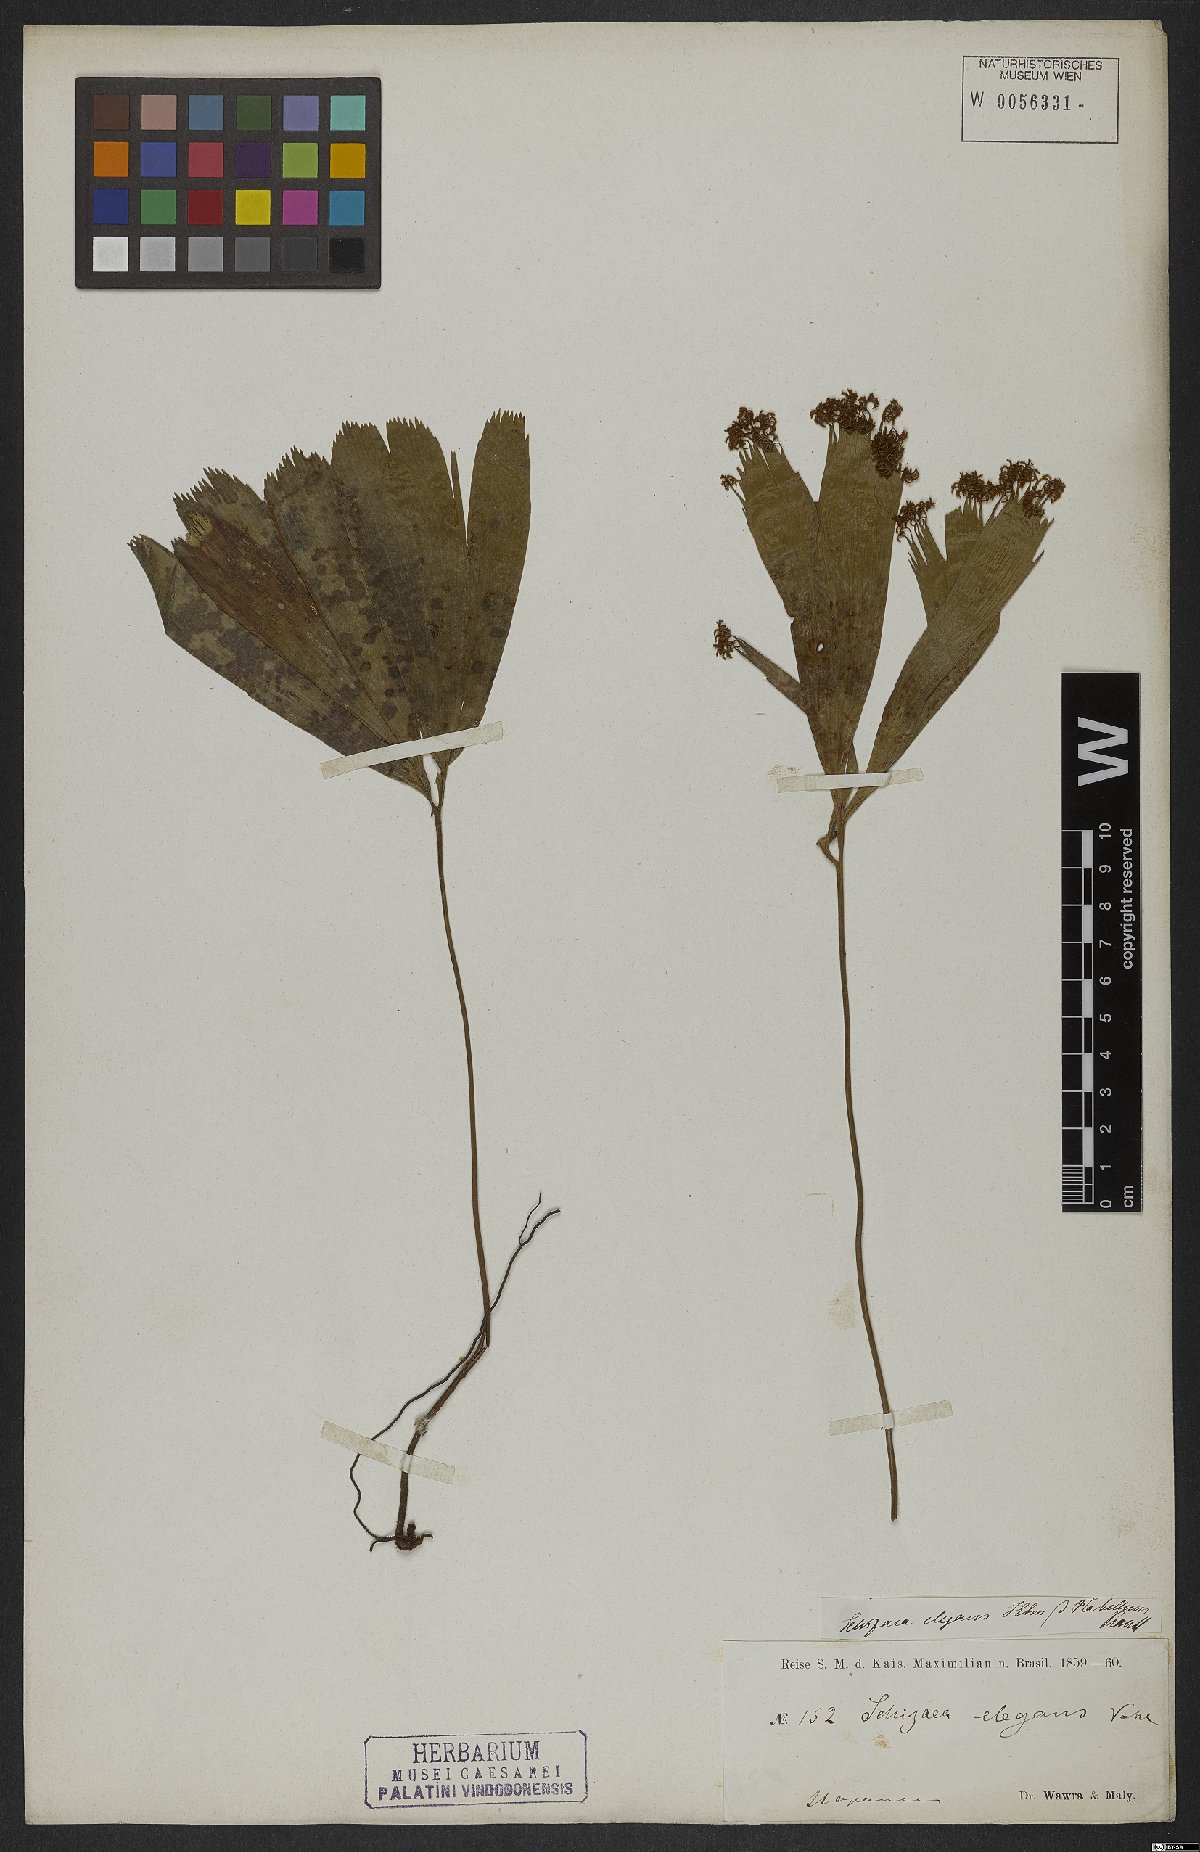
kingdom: Plantae
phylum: Tracheophyta
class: Polypodiopsida
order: Schizaeales
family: Schizaeaceae
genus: Schizaea
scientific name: Schizaea elegans
